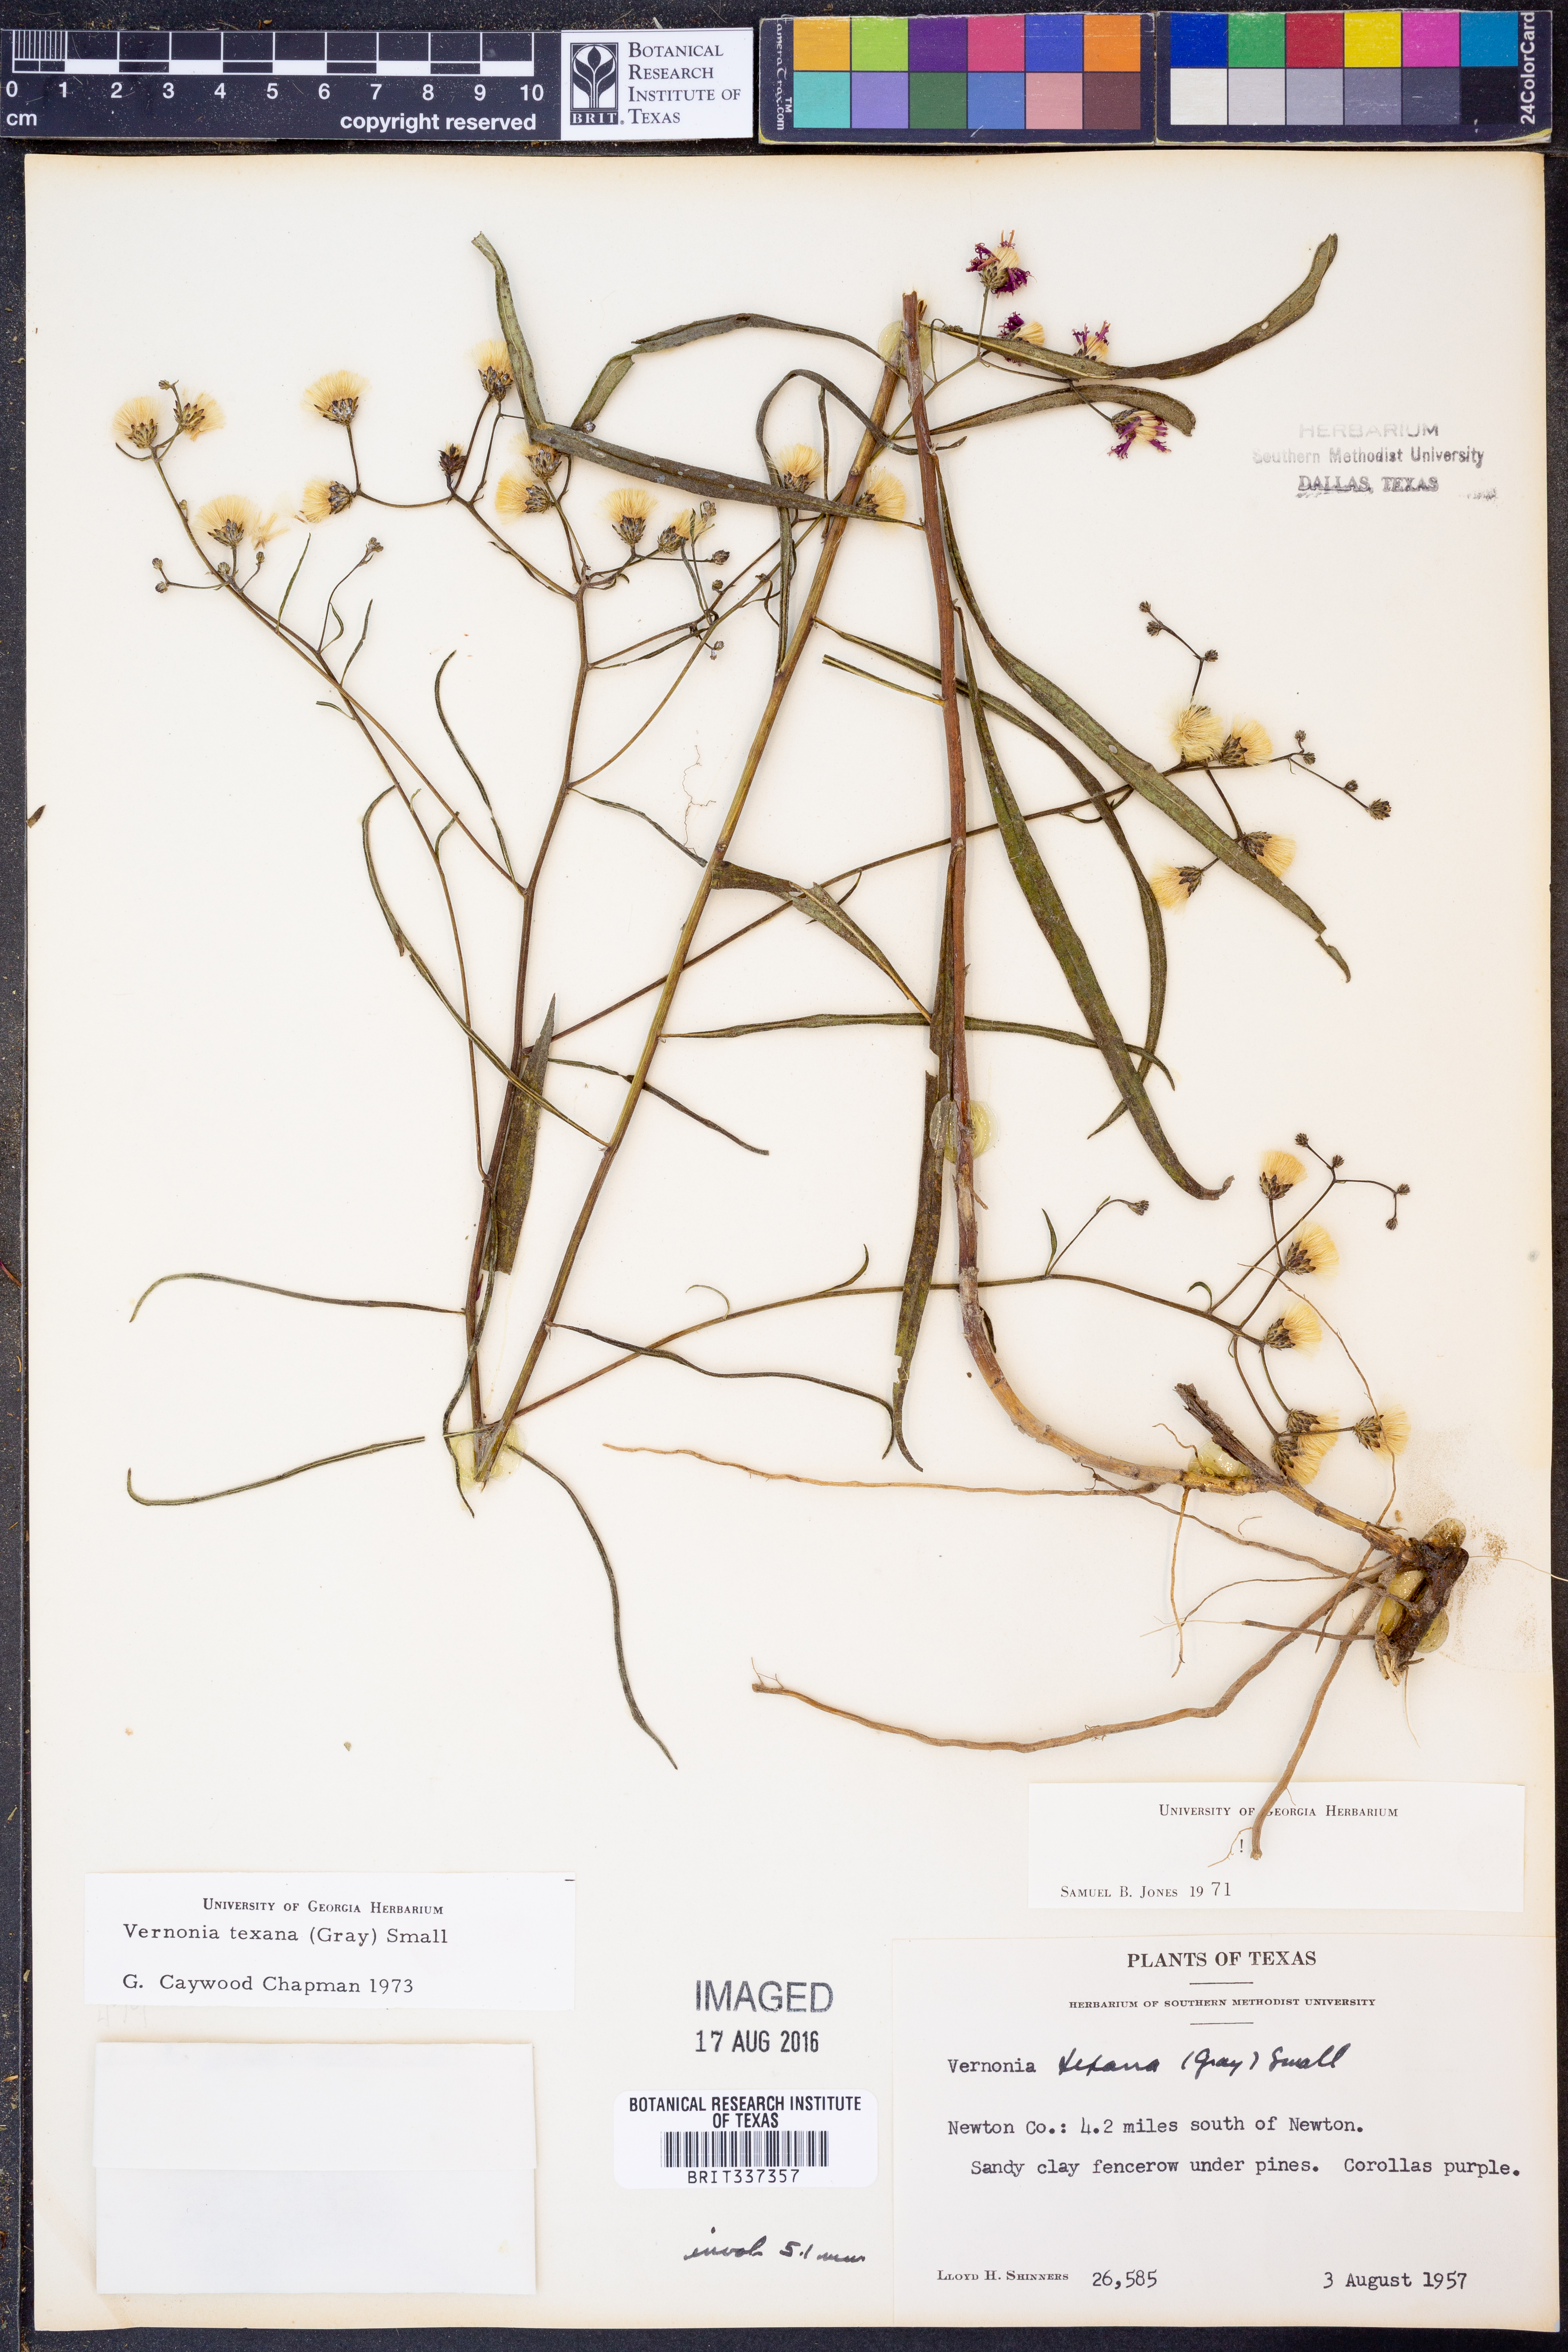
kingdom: Plantae
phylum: Tracheophyta
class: Magnoliopsida
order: Asterales
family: Asteraceae
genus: Vernonia
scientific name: Vernonia texana
